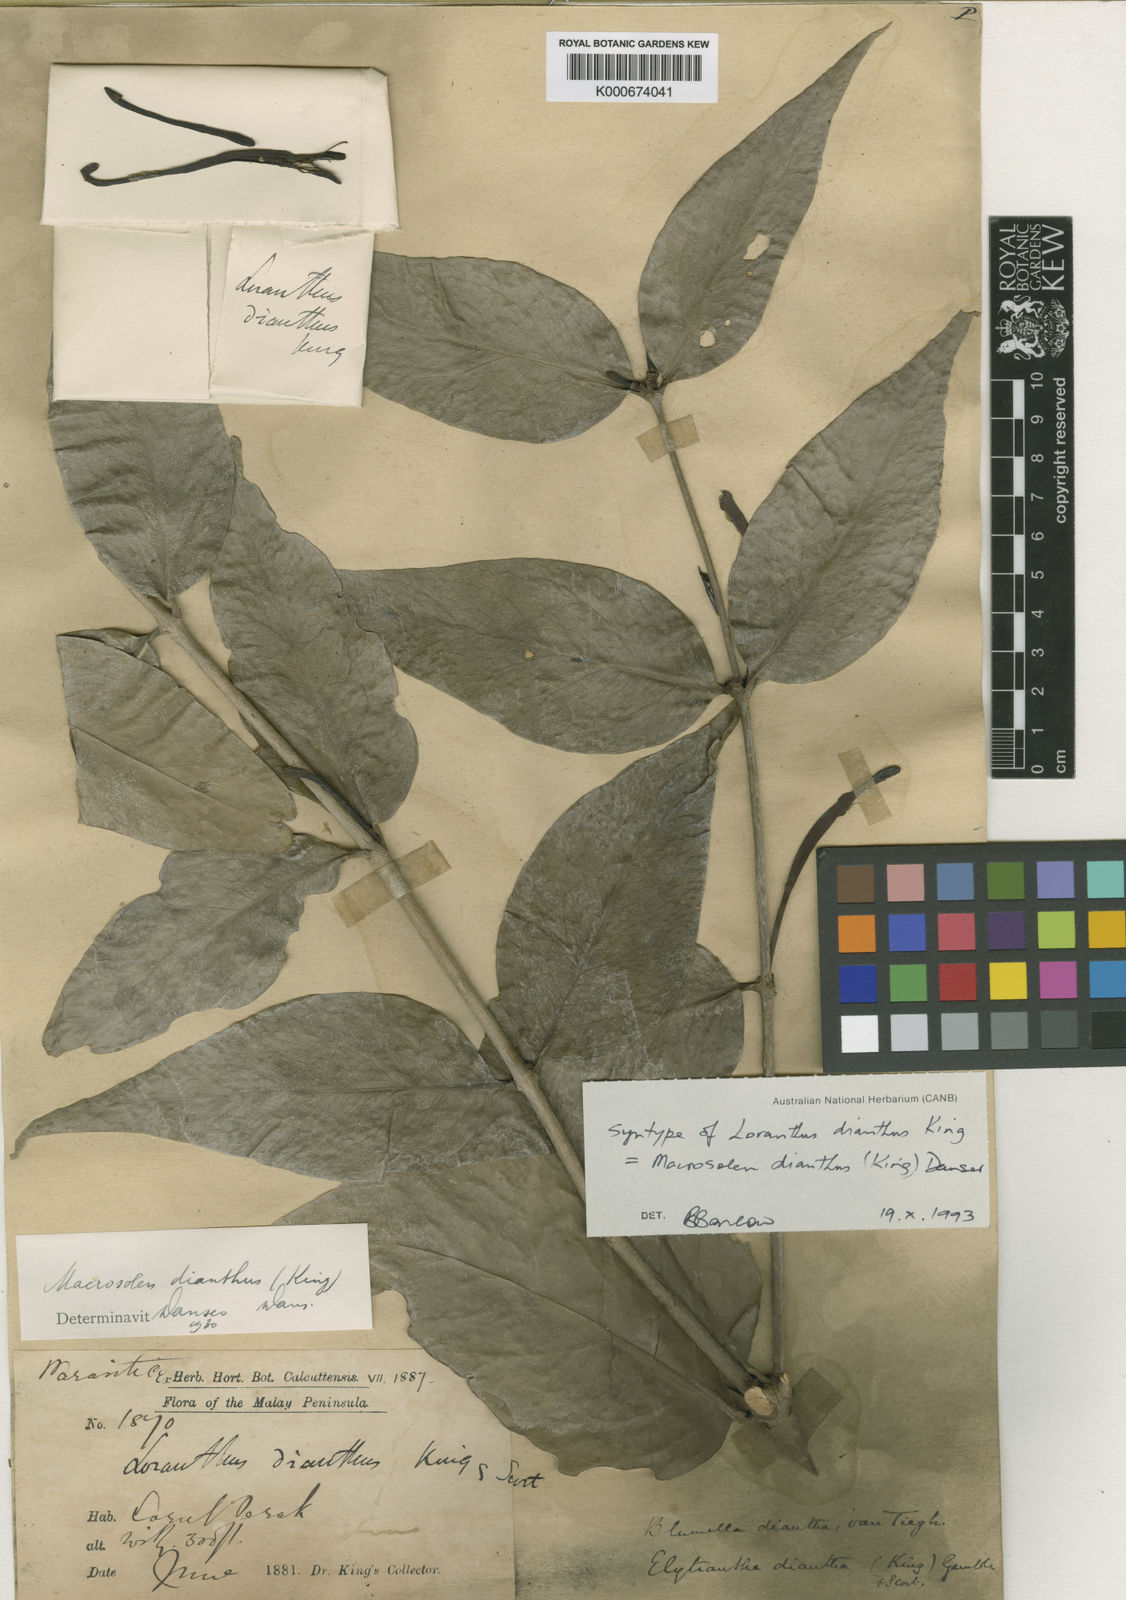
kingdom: Plantae
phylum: Tracheophyta
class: Magnoliopsida
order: Santalales
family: Loranthaceae
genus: Macrosolen
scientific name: Macrosolen dianthus
